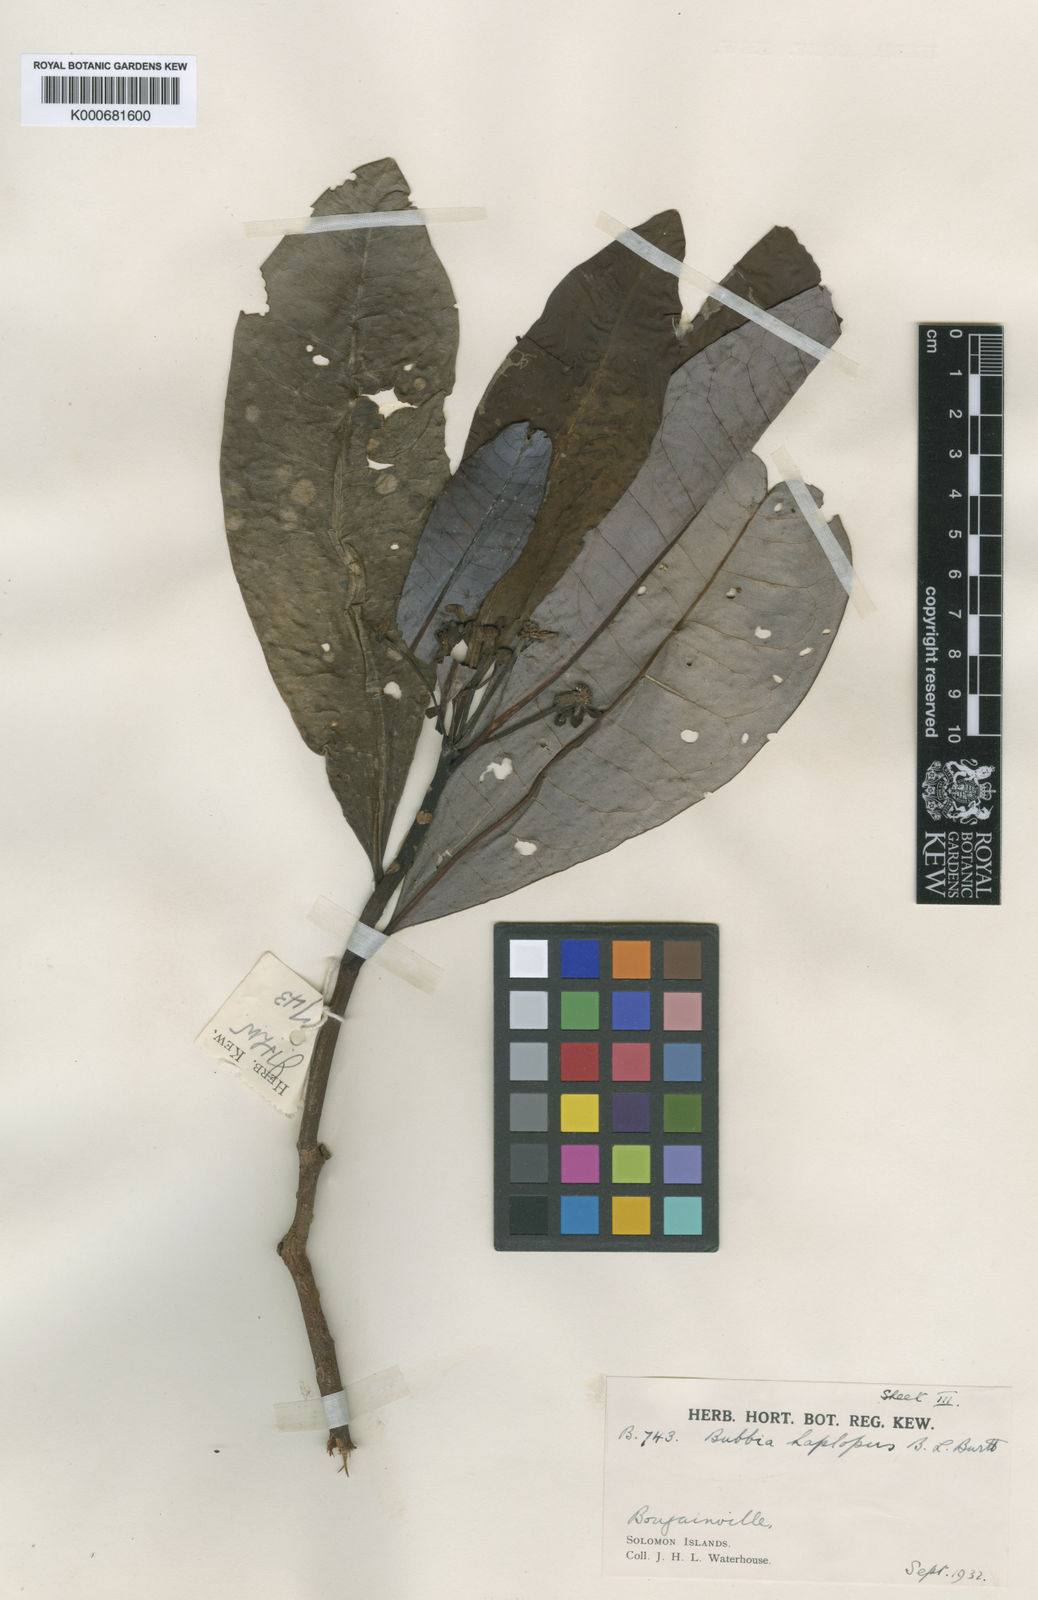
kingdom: Plantae
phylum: Tracheophyta
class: Magnoliopsida
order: Canellales
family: Winteraceae
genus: Zygogynum
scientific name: Zygogynum haplopus
